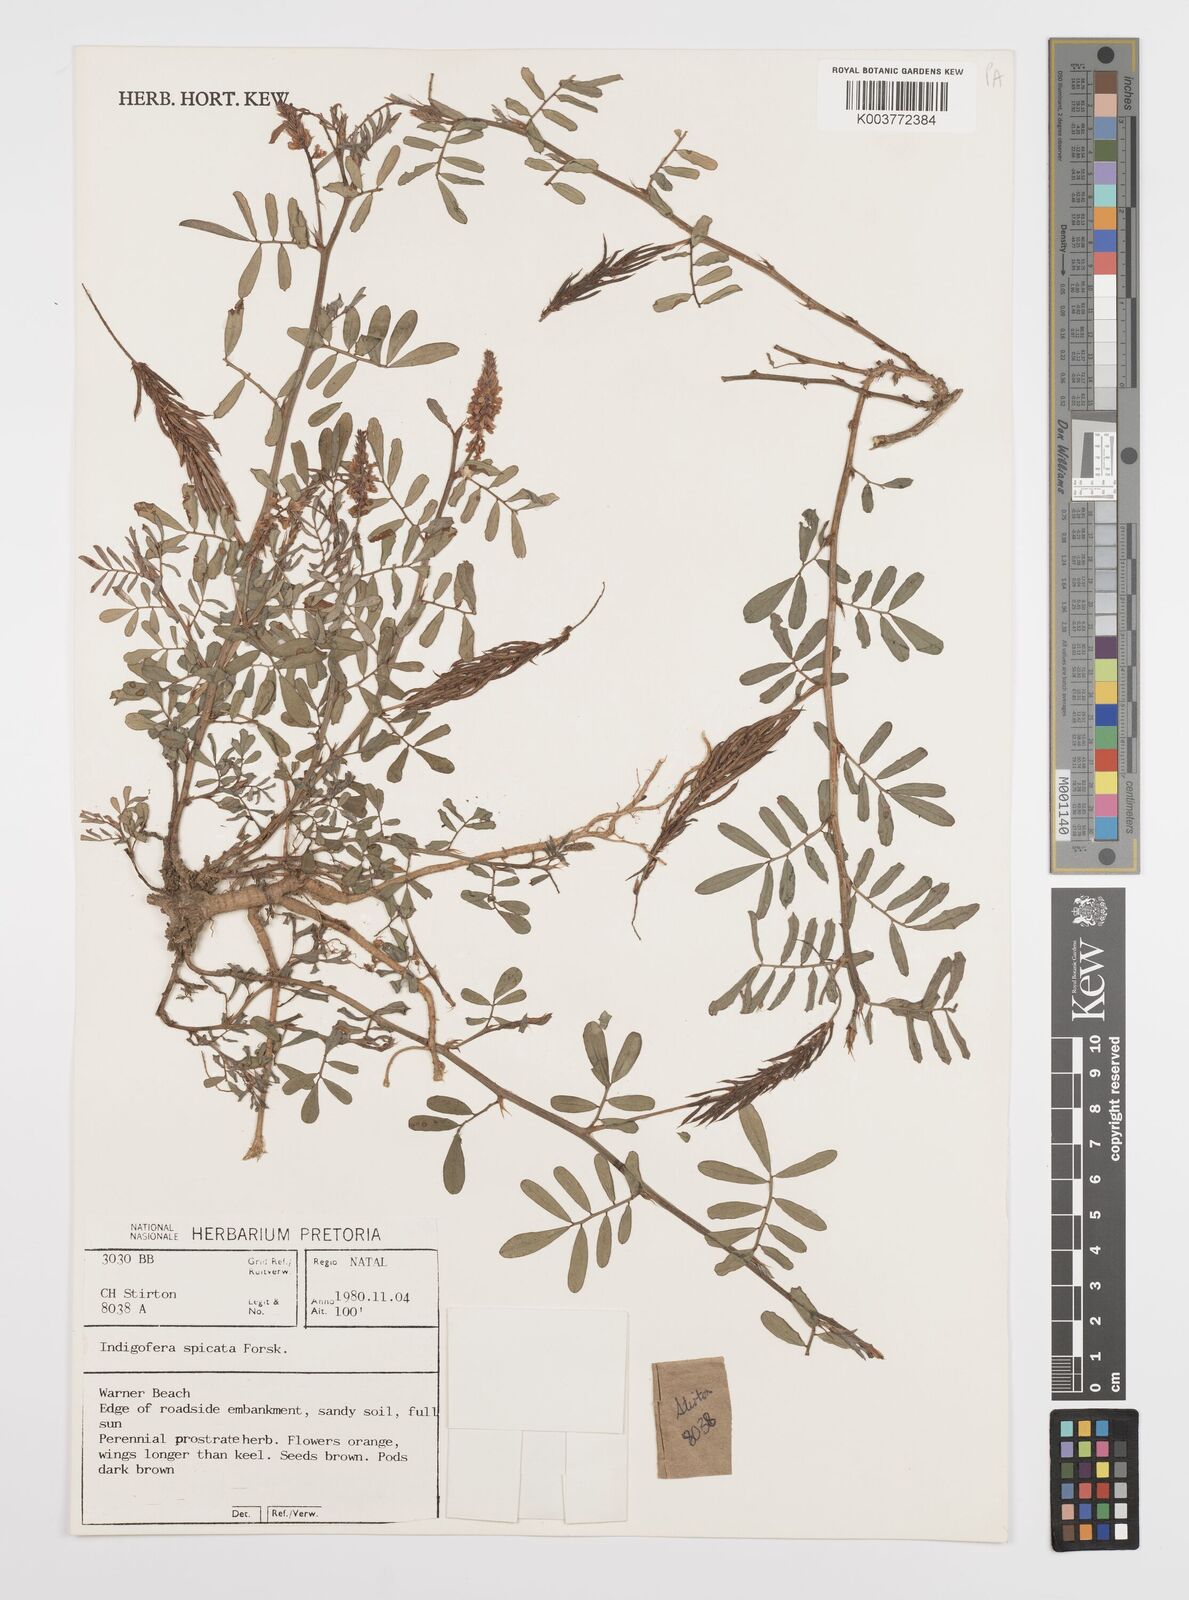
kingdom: Plantae
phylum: Tracheophyta
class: Magnoliopsida
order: Fabales
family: Fabaceae
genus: Indigofera
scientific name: Indigofera hendecaphylla
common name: Trailing indigo
